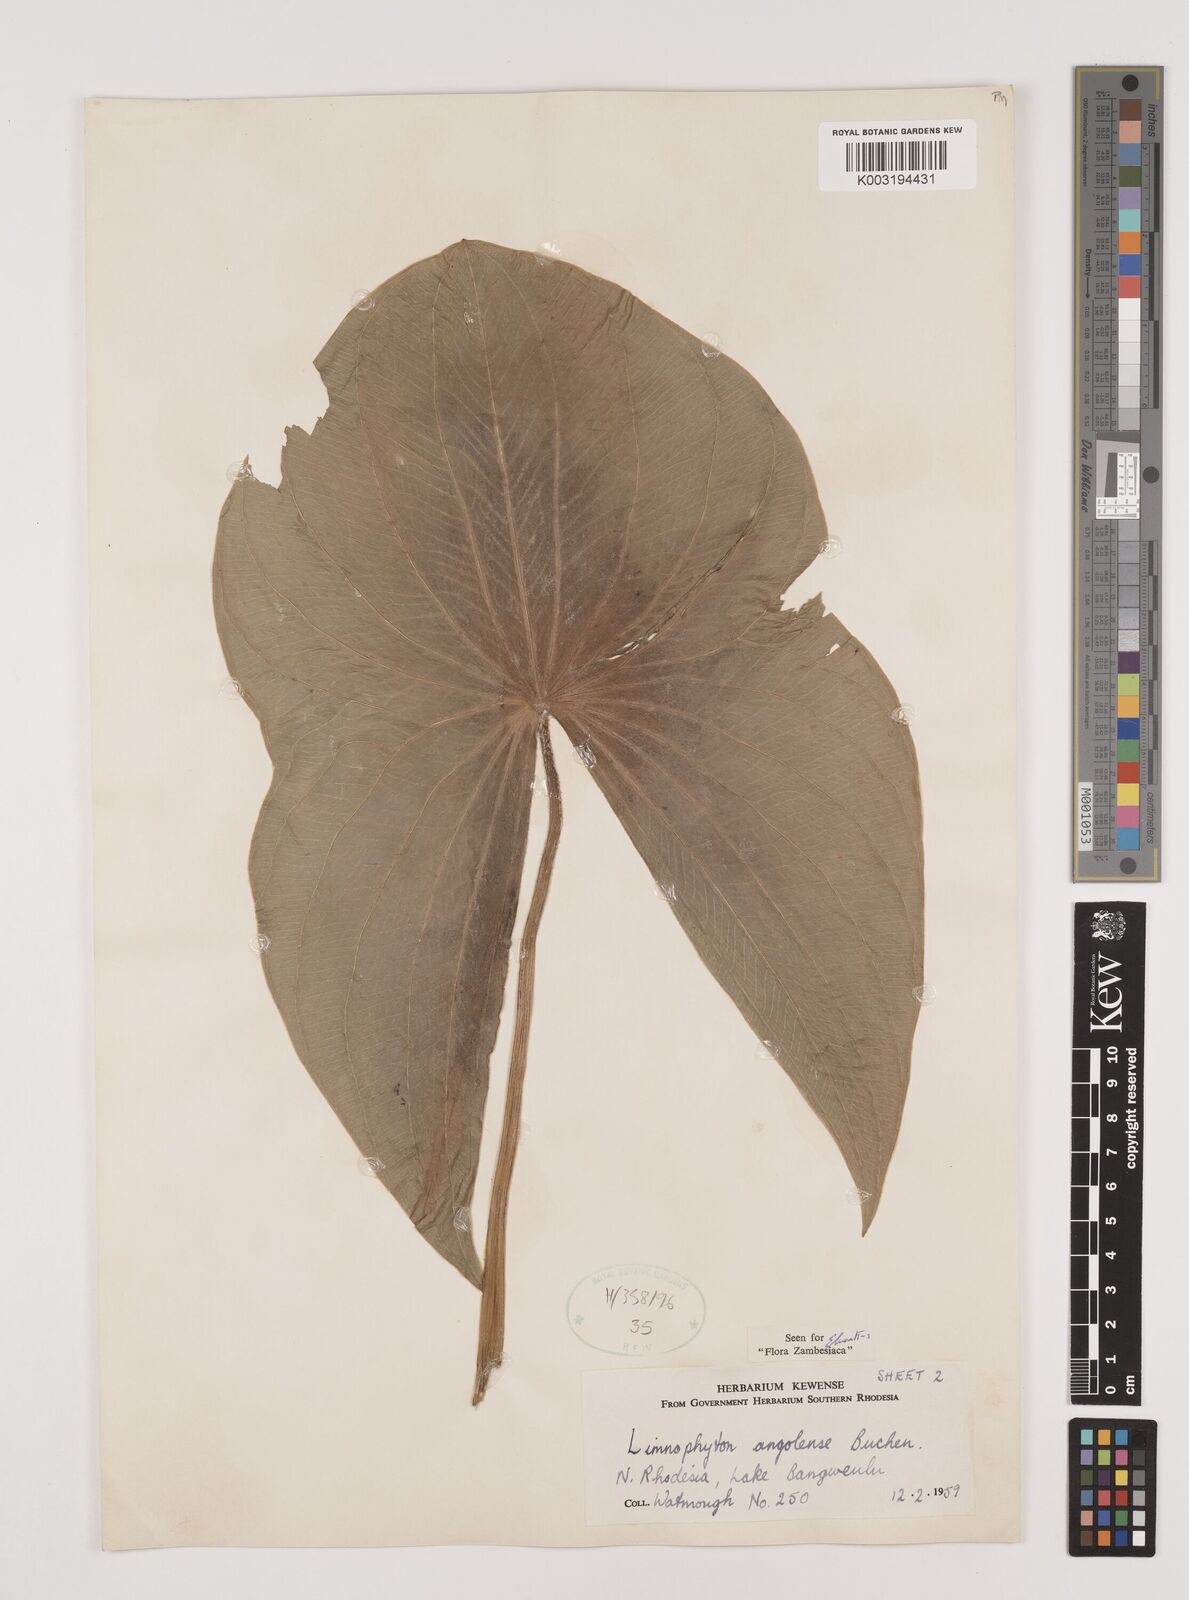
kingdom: Plantae
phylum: Tracheophyta
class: Liliopsida
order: Alismatales
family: Alismataceae
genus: Limnophyton
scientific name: Limnophyton
